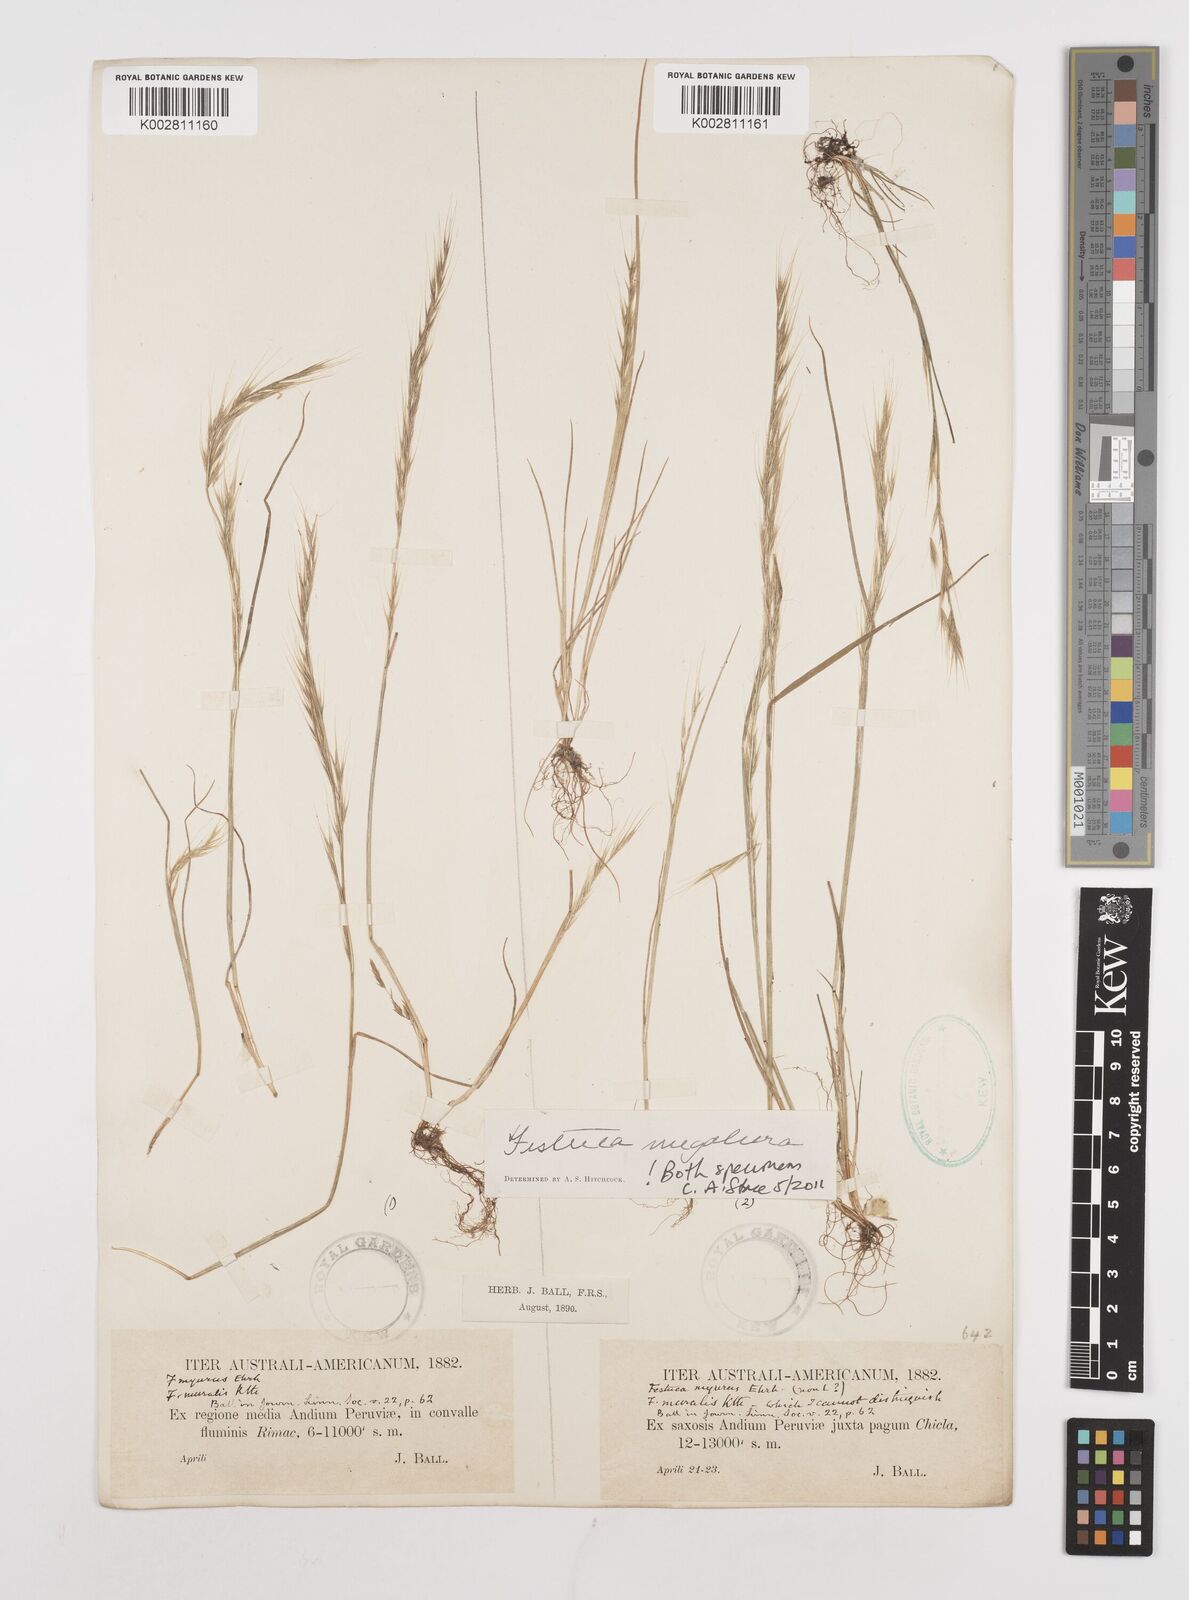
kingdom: Plantae
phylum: Tracheophyta
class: Liliopsida
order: Poales
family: Poaceae
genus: Festuca
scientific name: Festuca myuros
